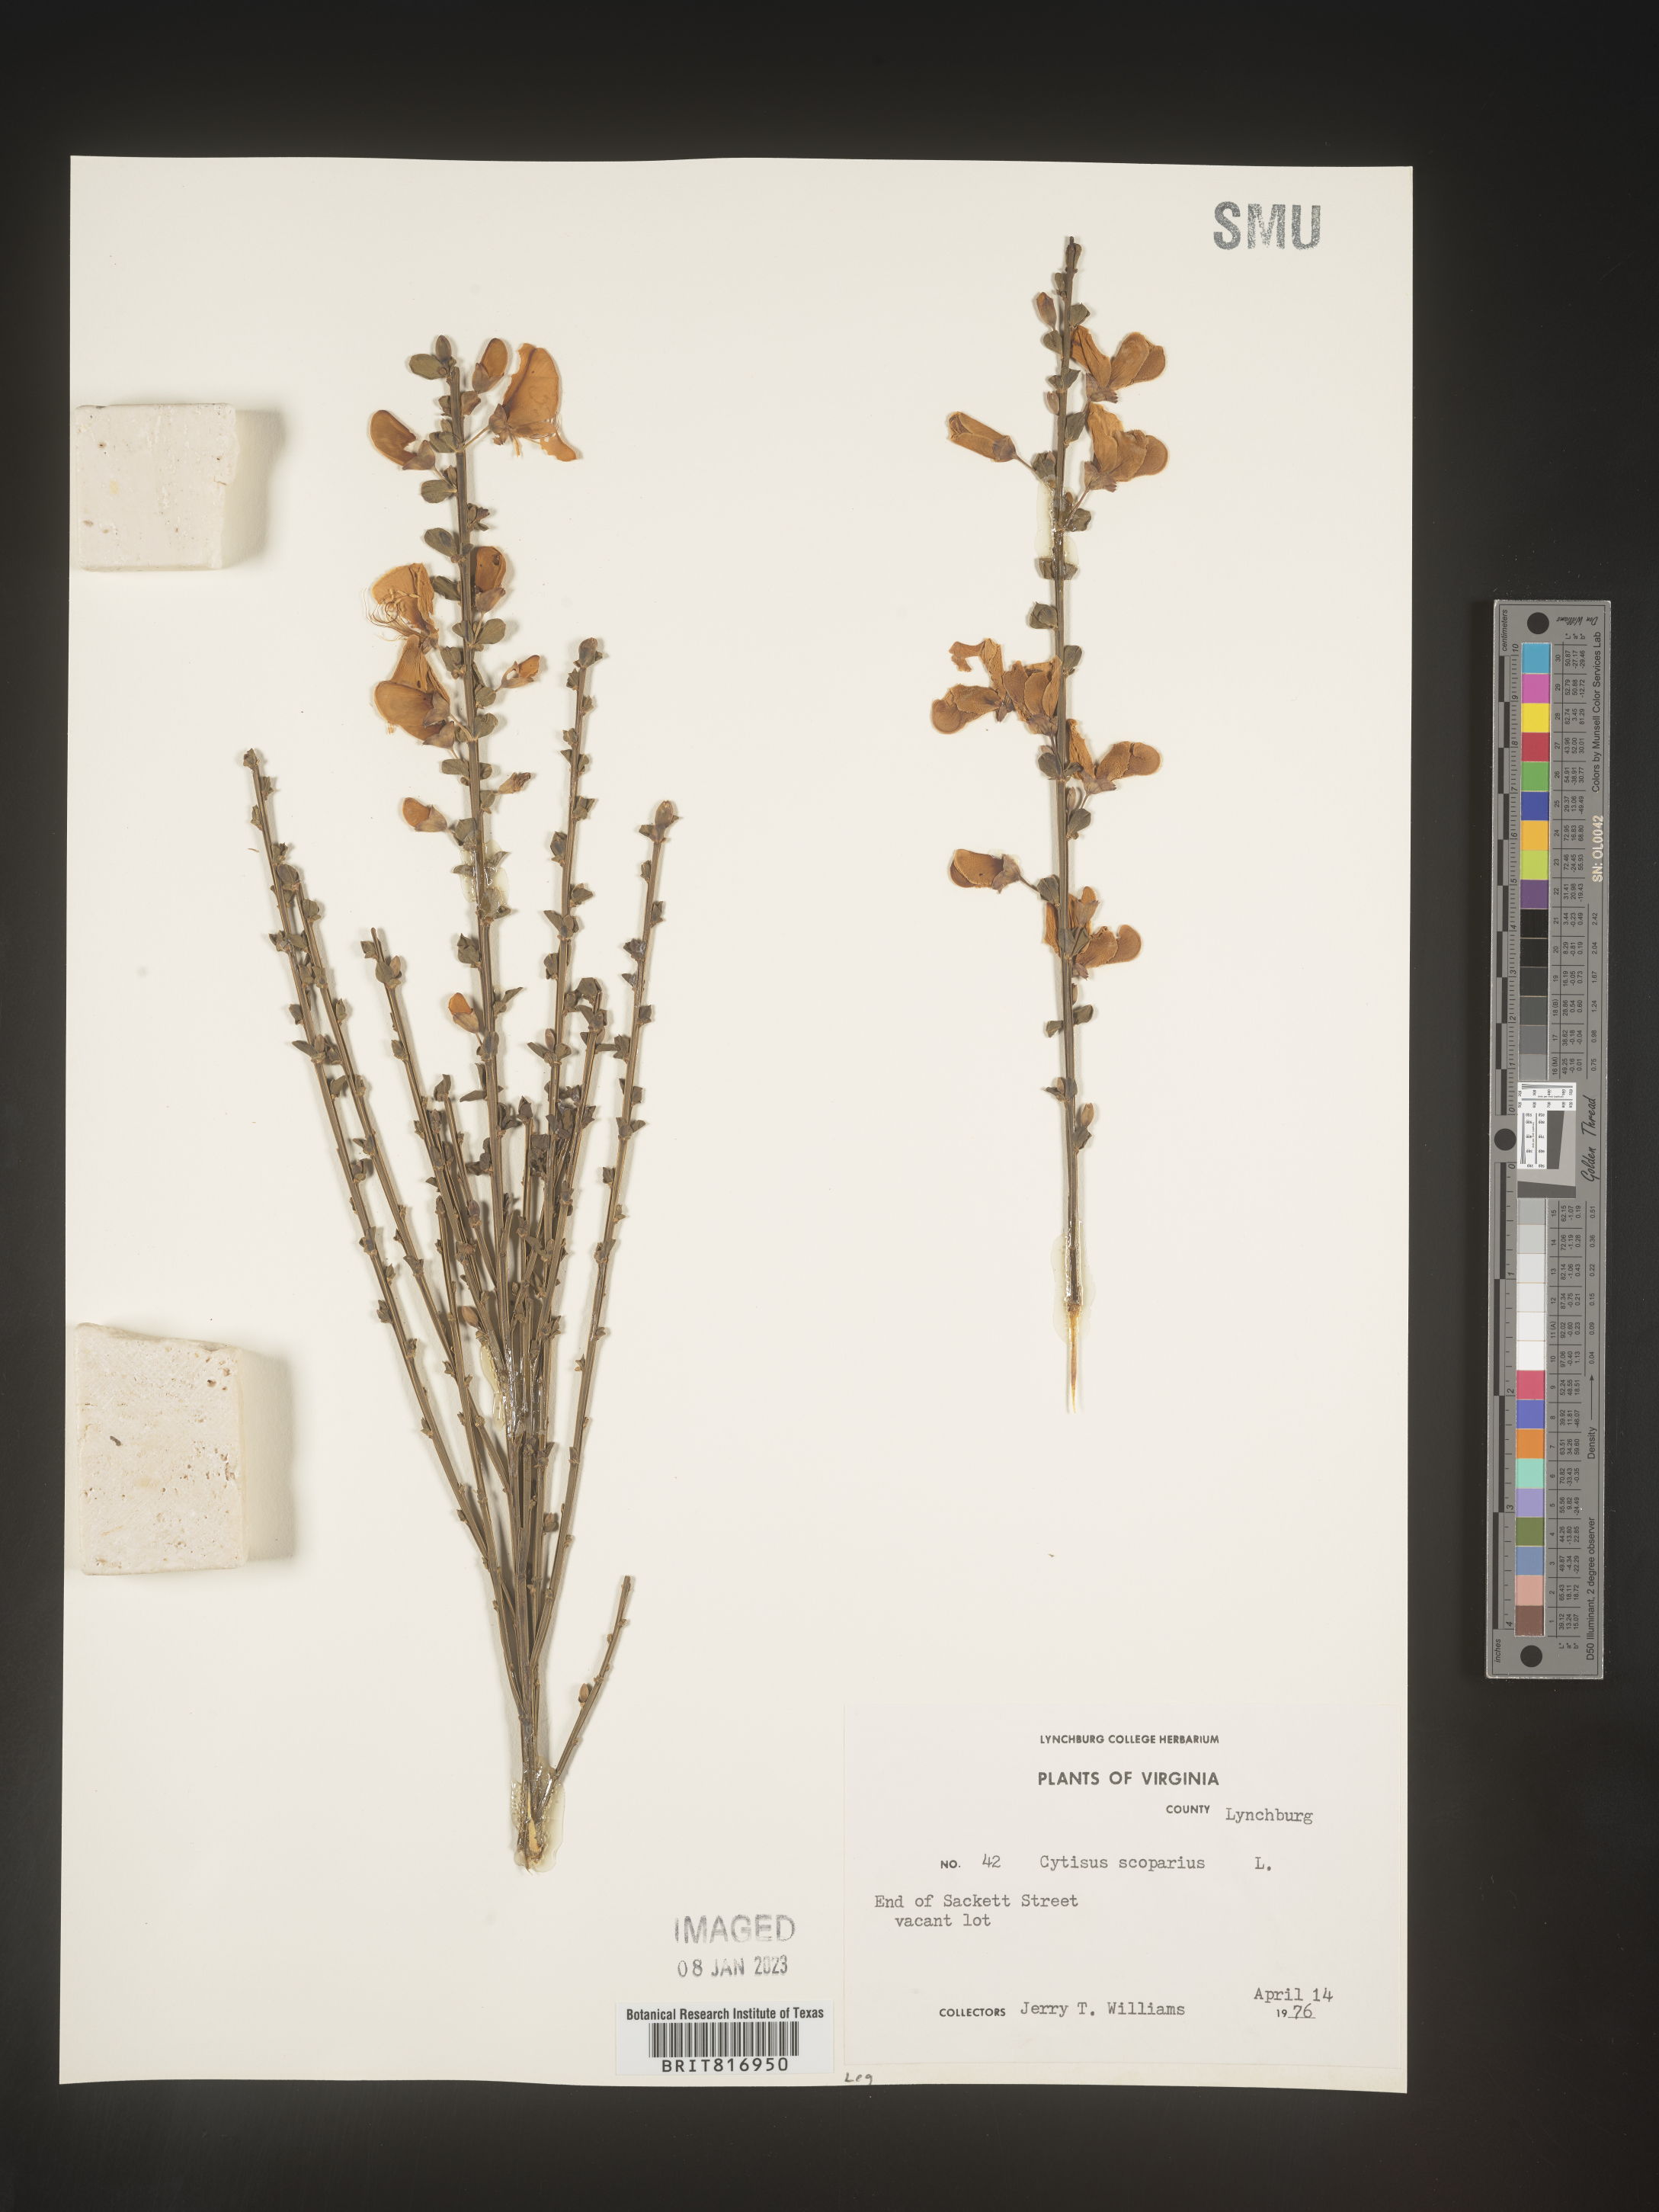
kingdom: Plantae
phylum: Tracheophyta
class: Magnoliopsida
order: Fabales
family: Fabaceae
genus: Cytisus
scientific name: Cytisus
